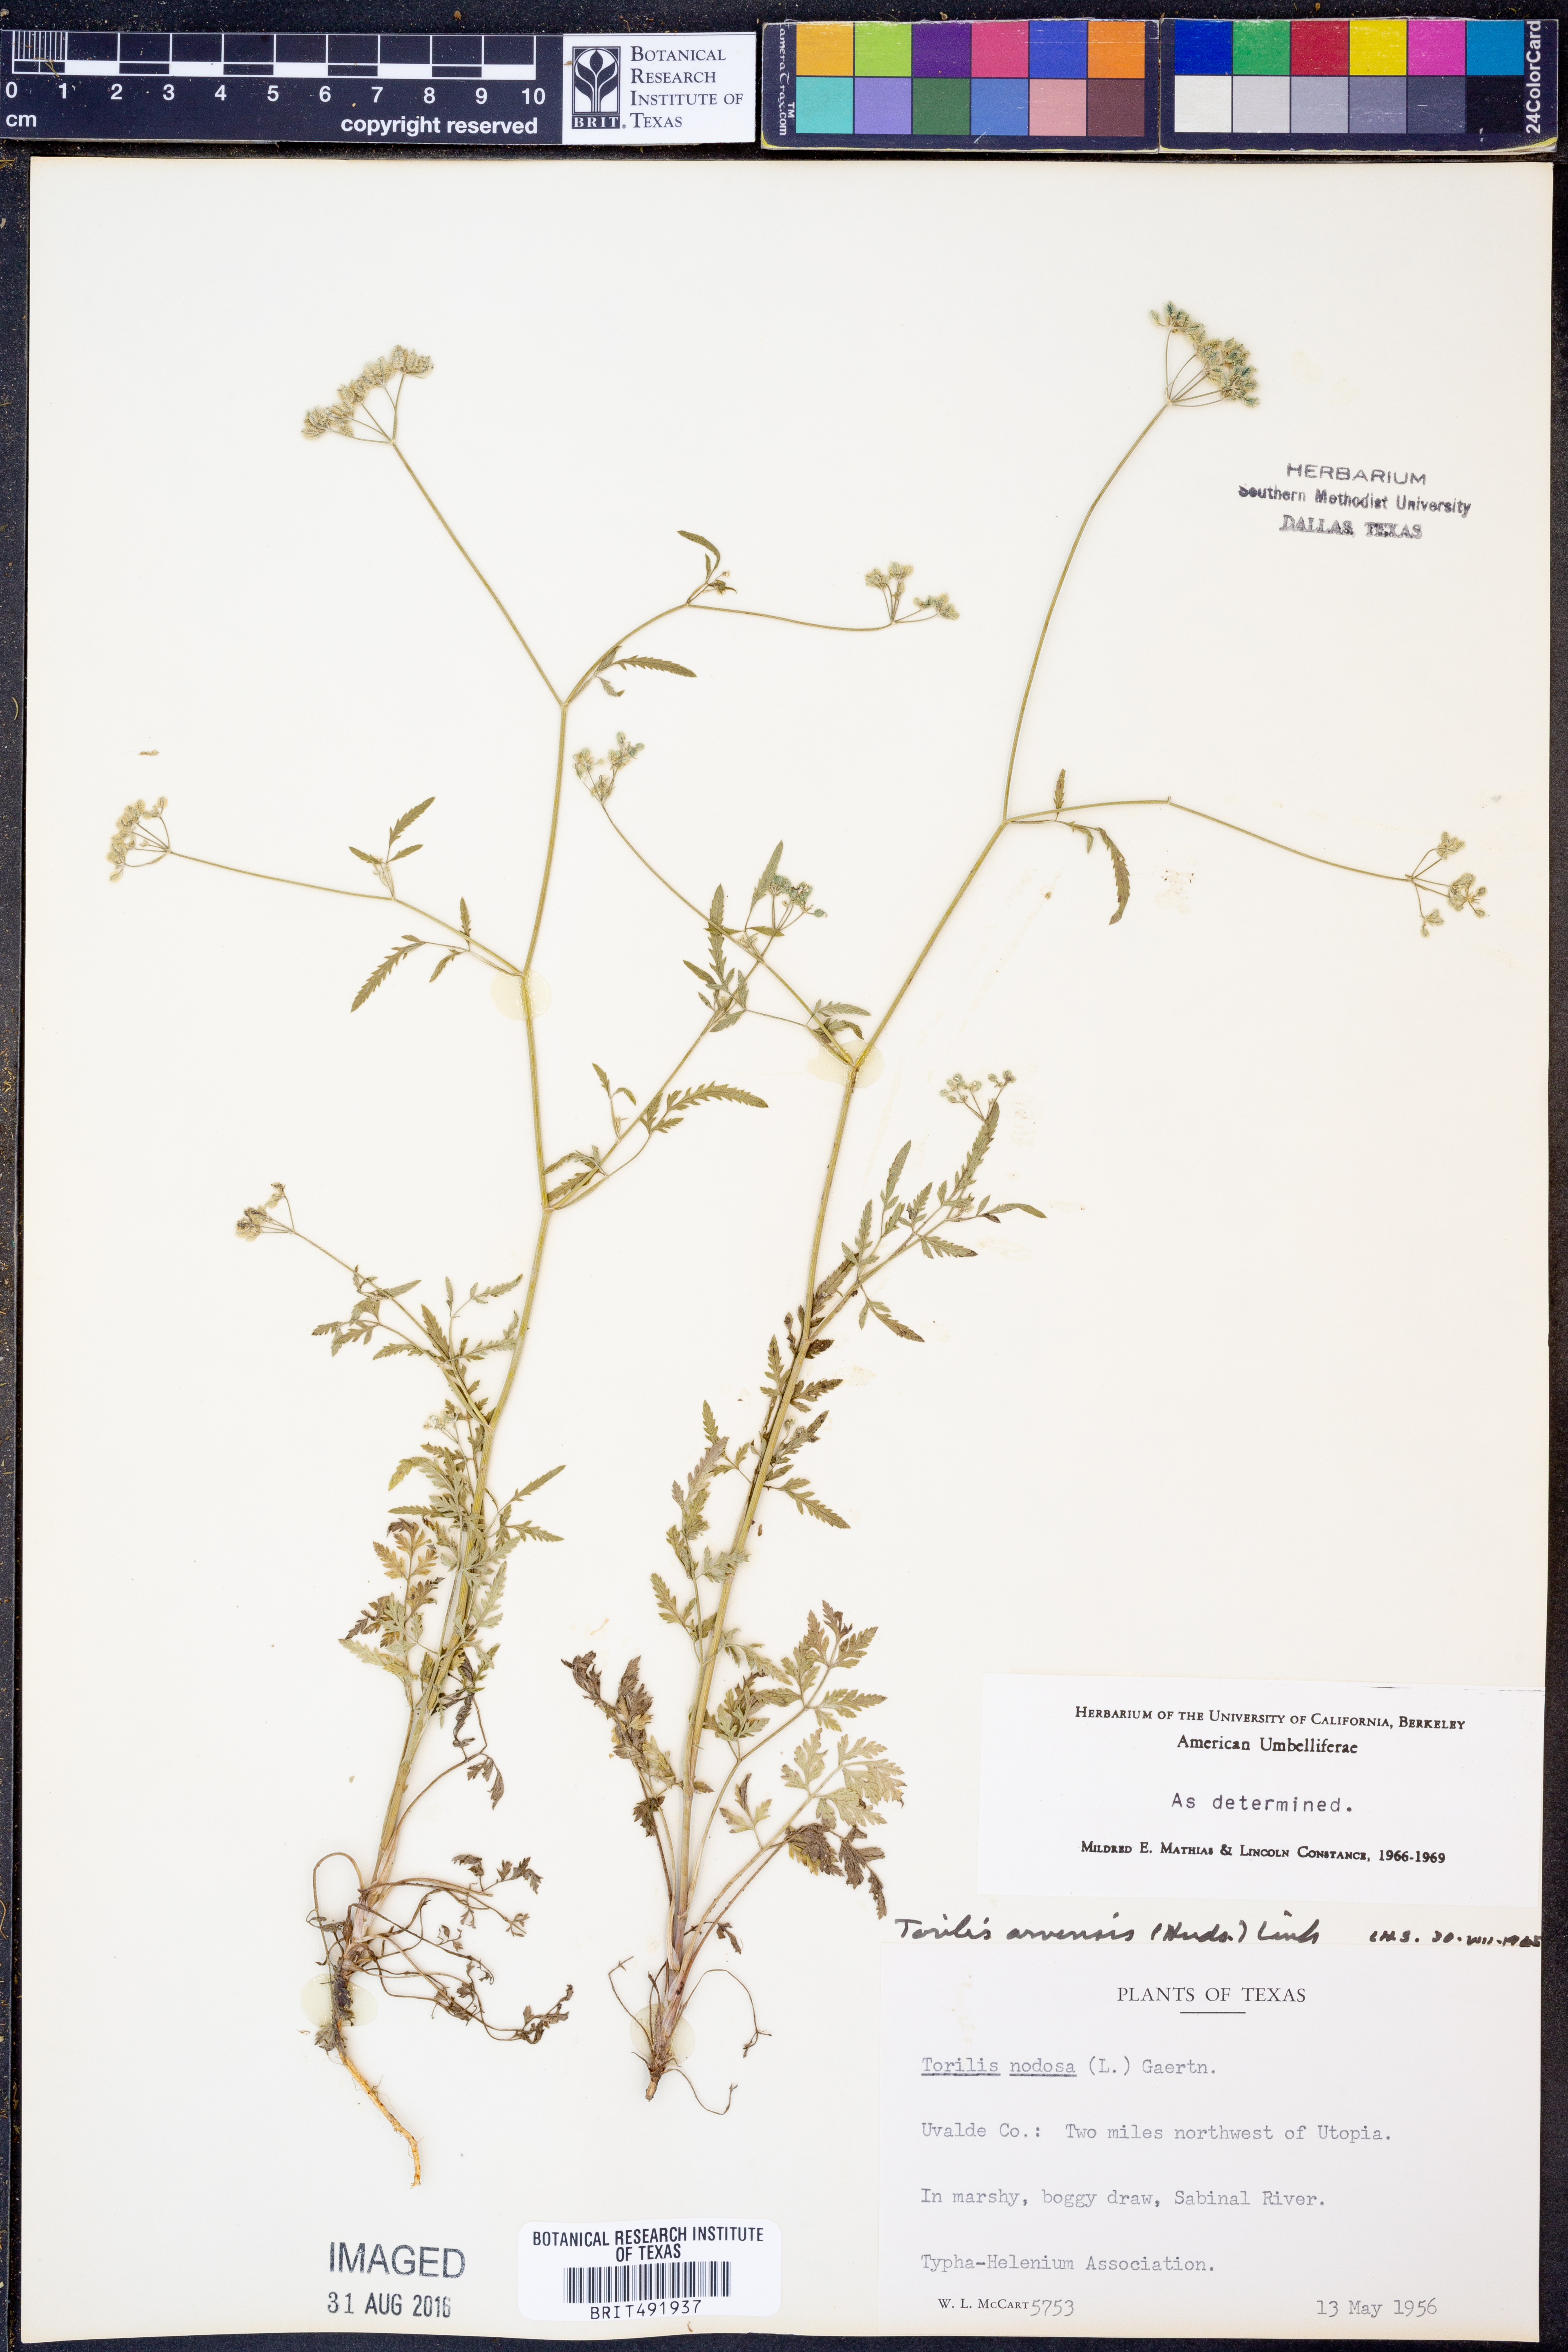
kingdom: Plantae
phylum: Tracheophyta
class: Magnoliopsida
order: Apiales
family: Apiaceae
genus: Torilis
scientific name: Torilis arvensis
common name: Spreading hedge-parsley
